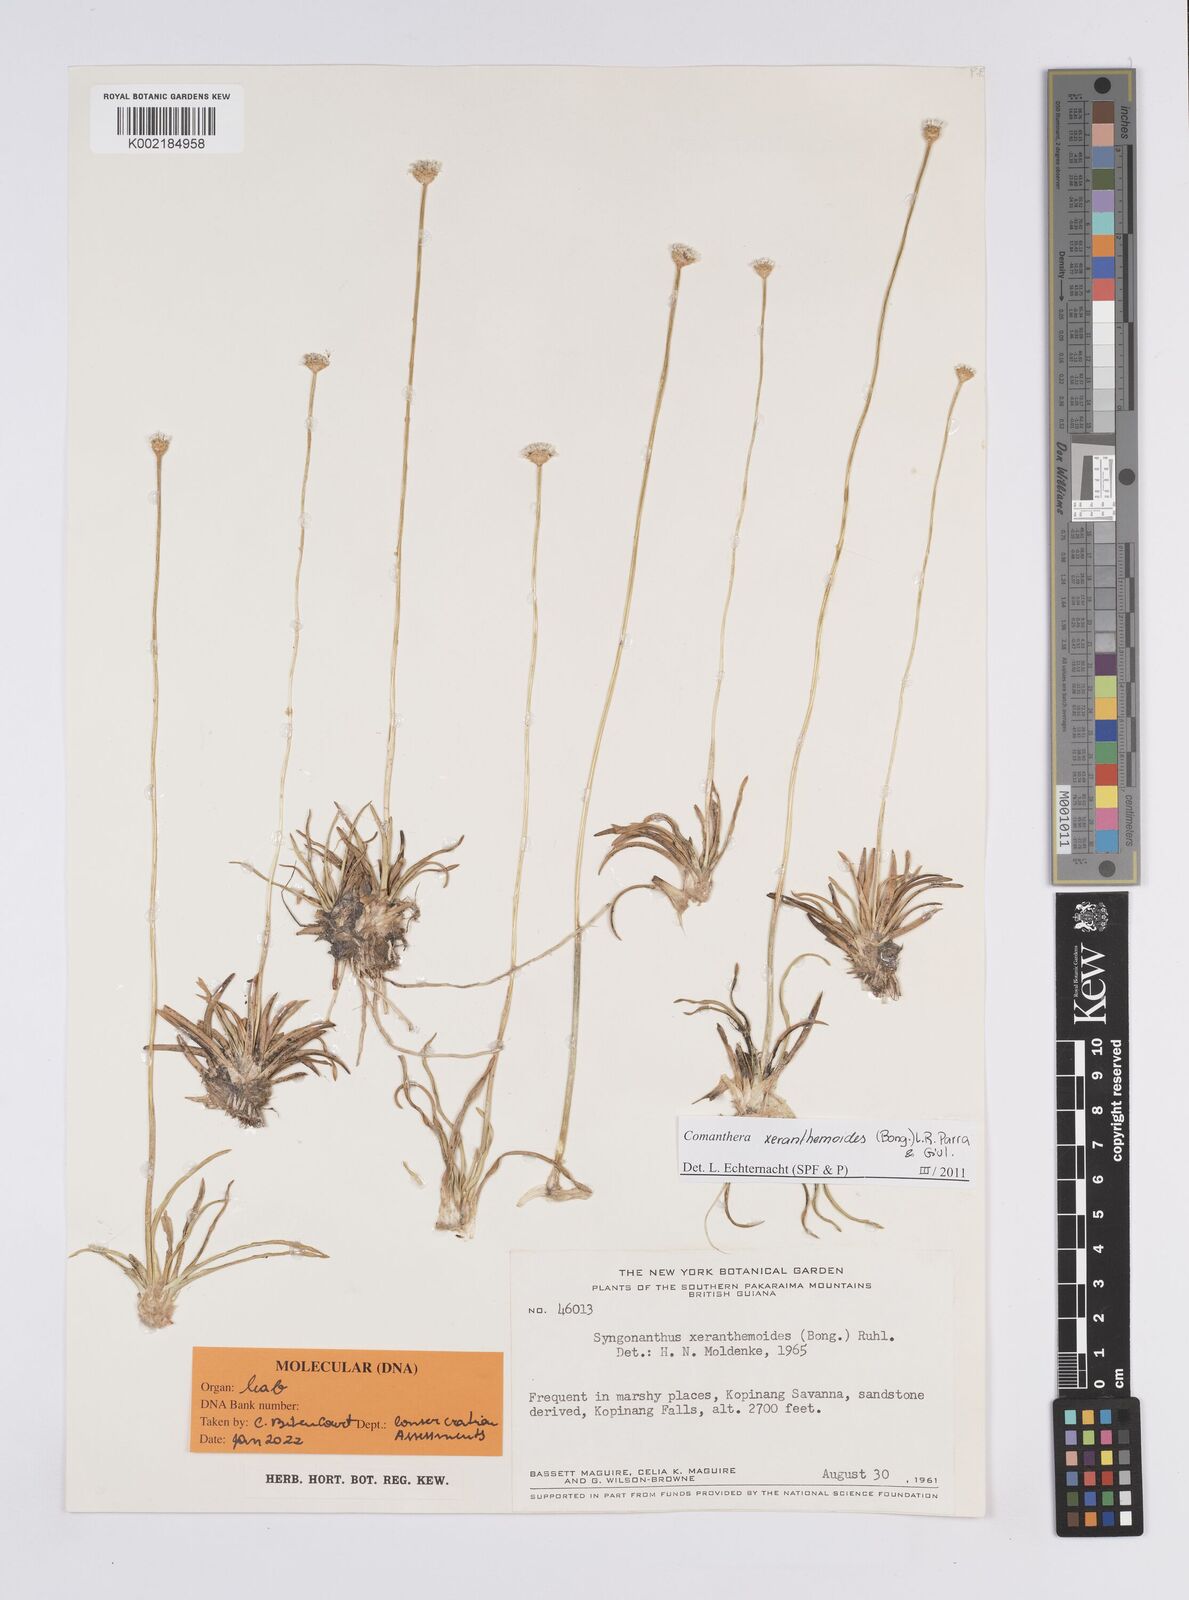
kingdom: Plantae
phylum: Tracheophyta
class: Liliopsida
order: Poales
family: Eriocaulaceae
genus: Comanthera
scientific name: Comanthera xeranthemoides
